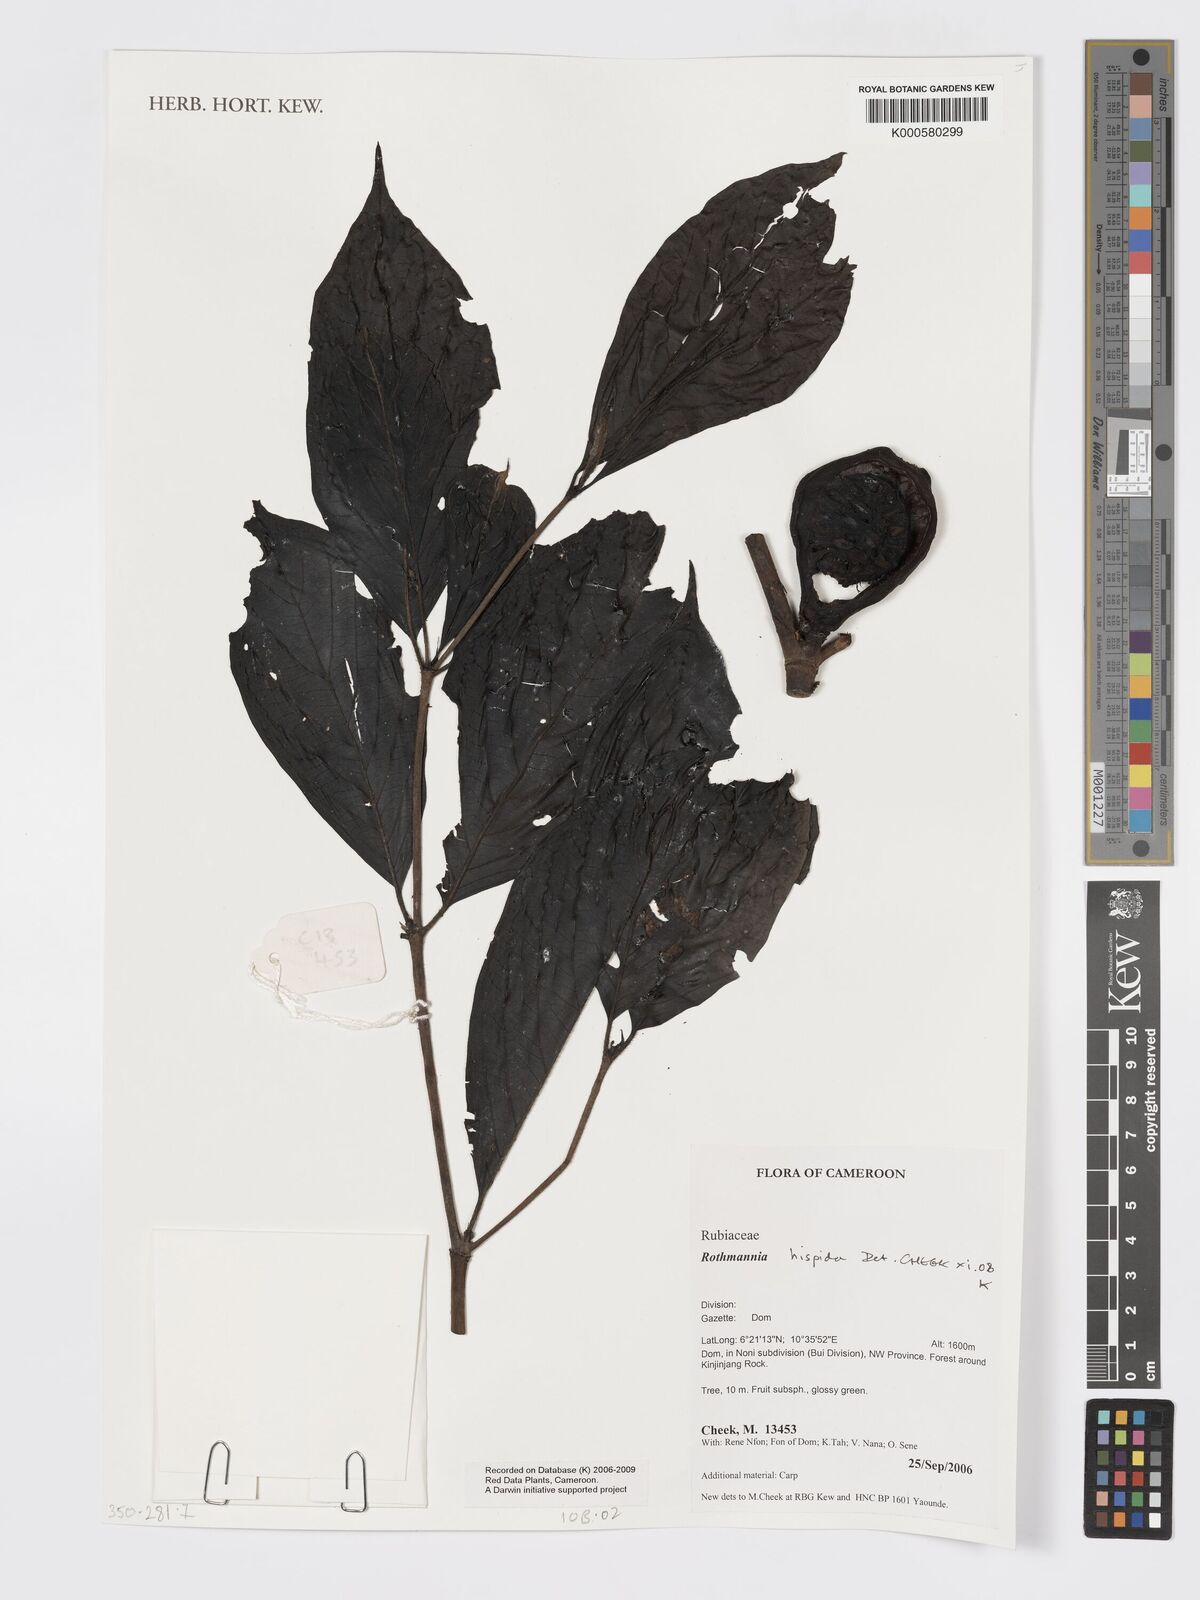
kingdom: Plantae
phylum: Tracheophyta
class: Magnoliopsida
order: Gentianales
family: Rubiaceae
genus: Rothmannia
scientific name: Rothmannia hispida
